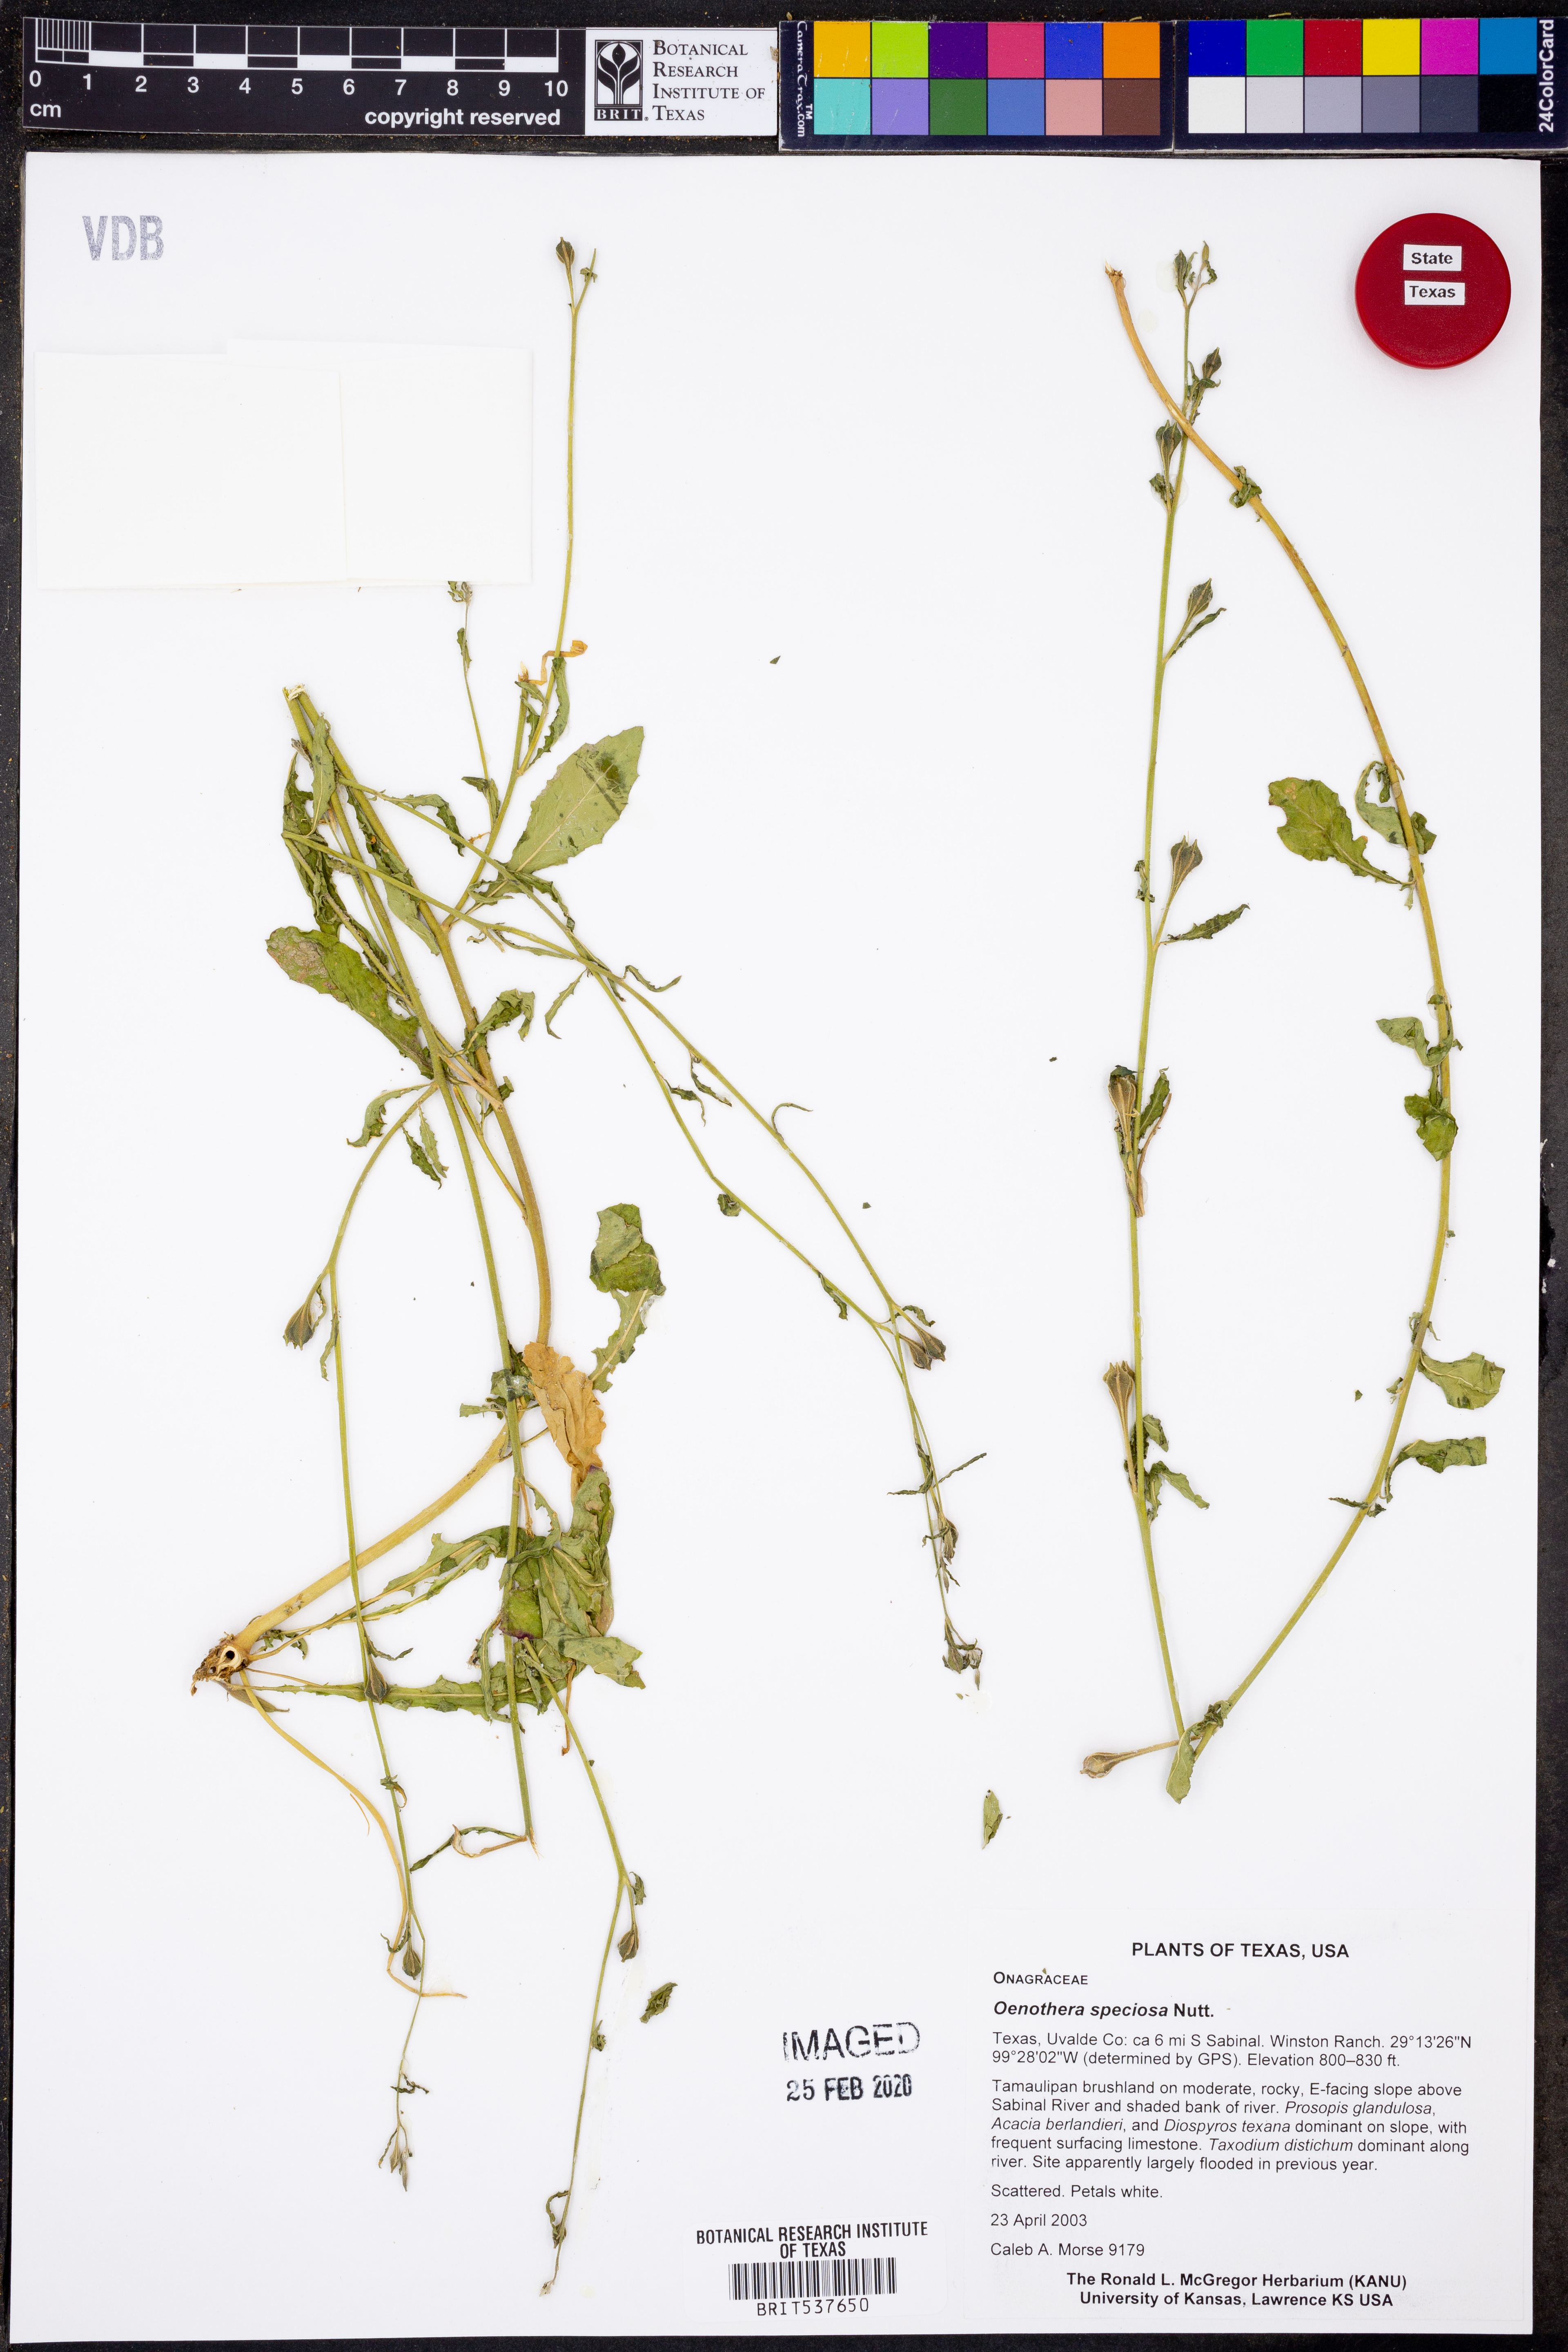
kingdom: Plantae
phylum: Tracheophyta
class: Magnoliopsida
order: Myrtales
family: Onagraceae
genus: Oenothera
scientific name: Oenothera speciosa
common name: White evening-primrose
